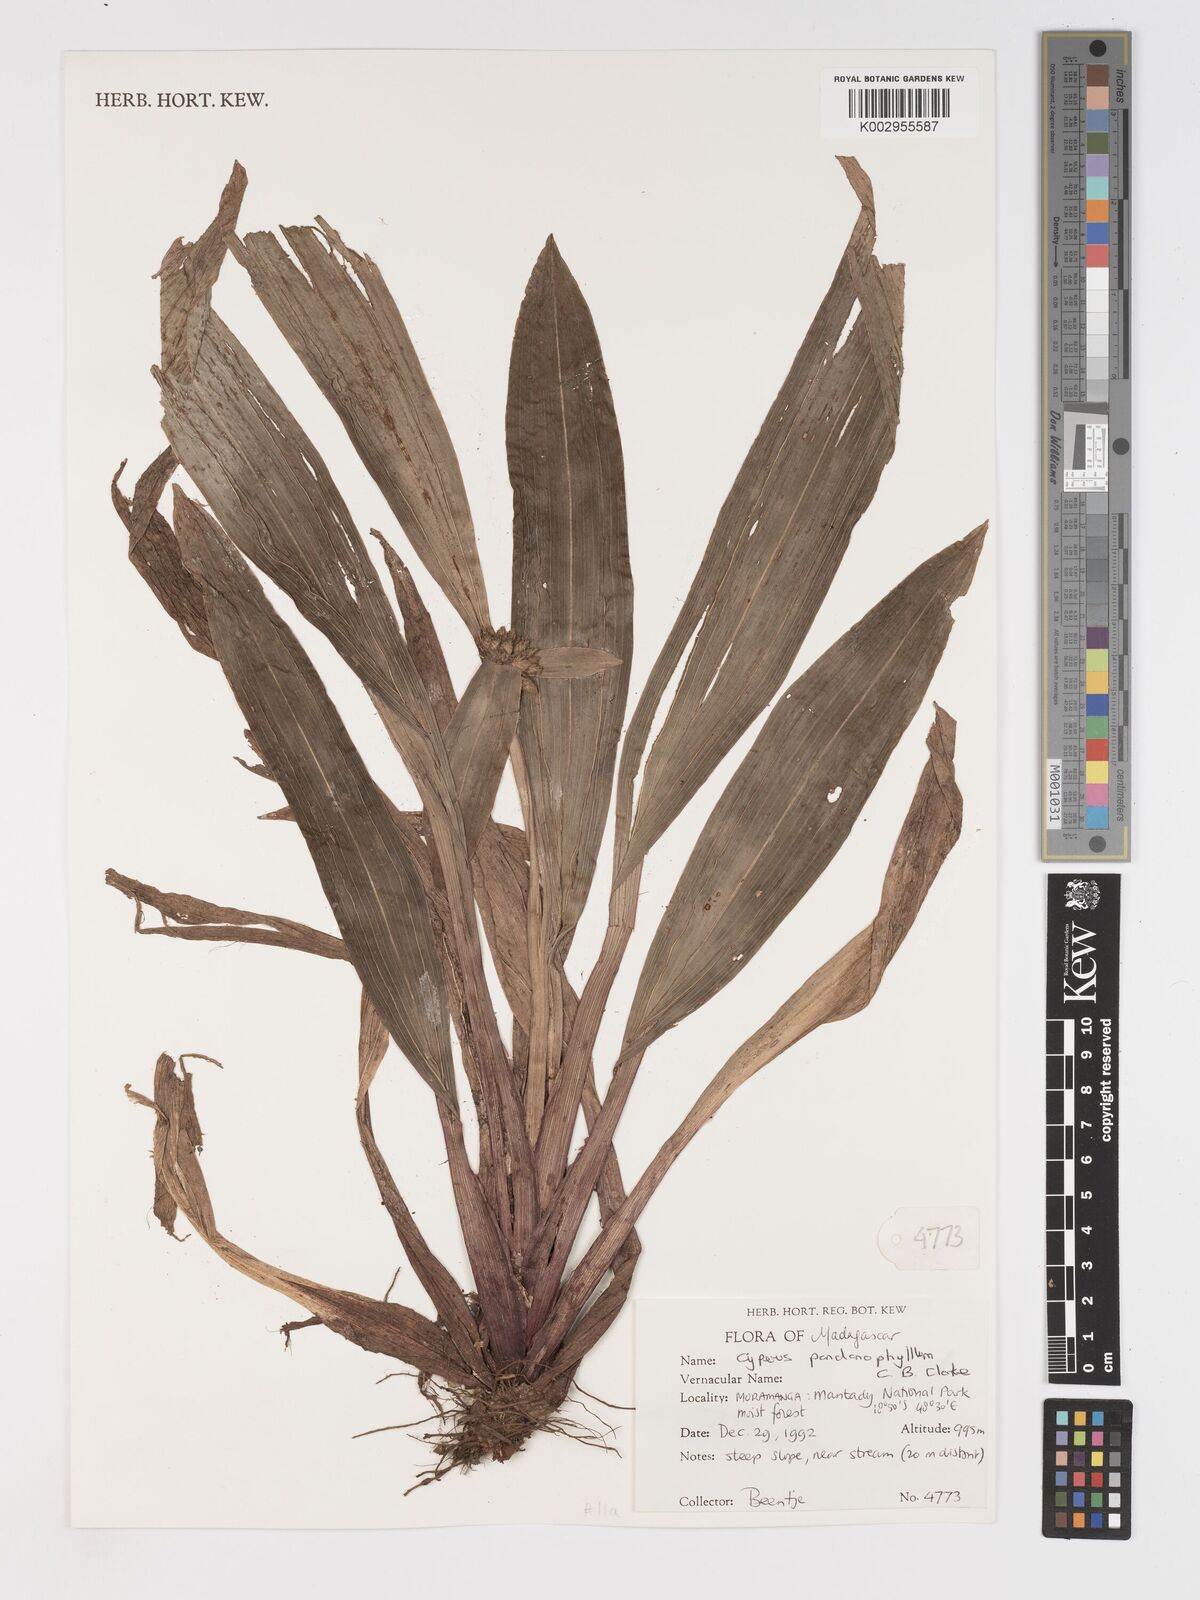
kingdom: Plantae
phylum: Tracheophyta
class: Liliopsida
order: Poales
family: Cyperaceae
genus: Cyperus
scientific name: Cyperus pandanophyllum
